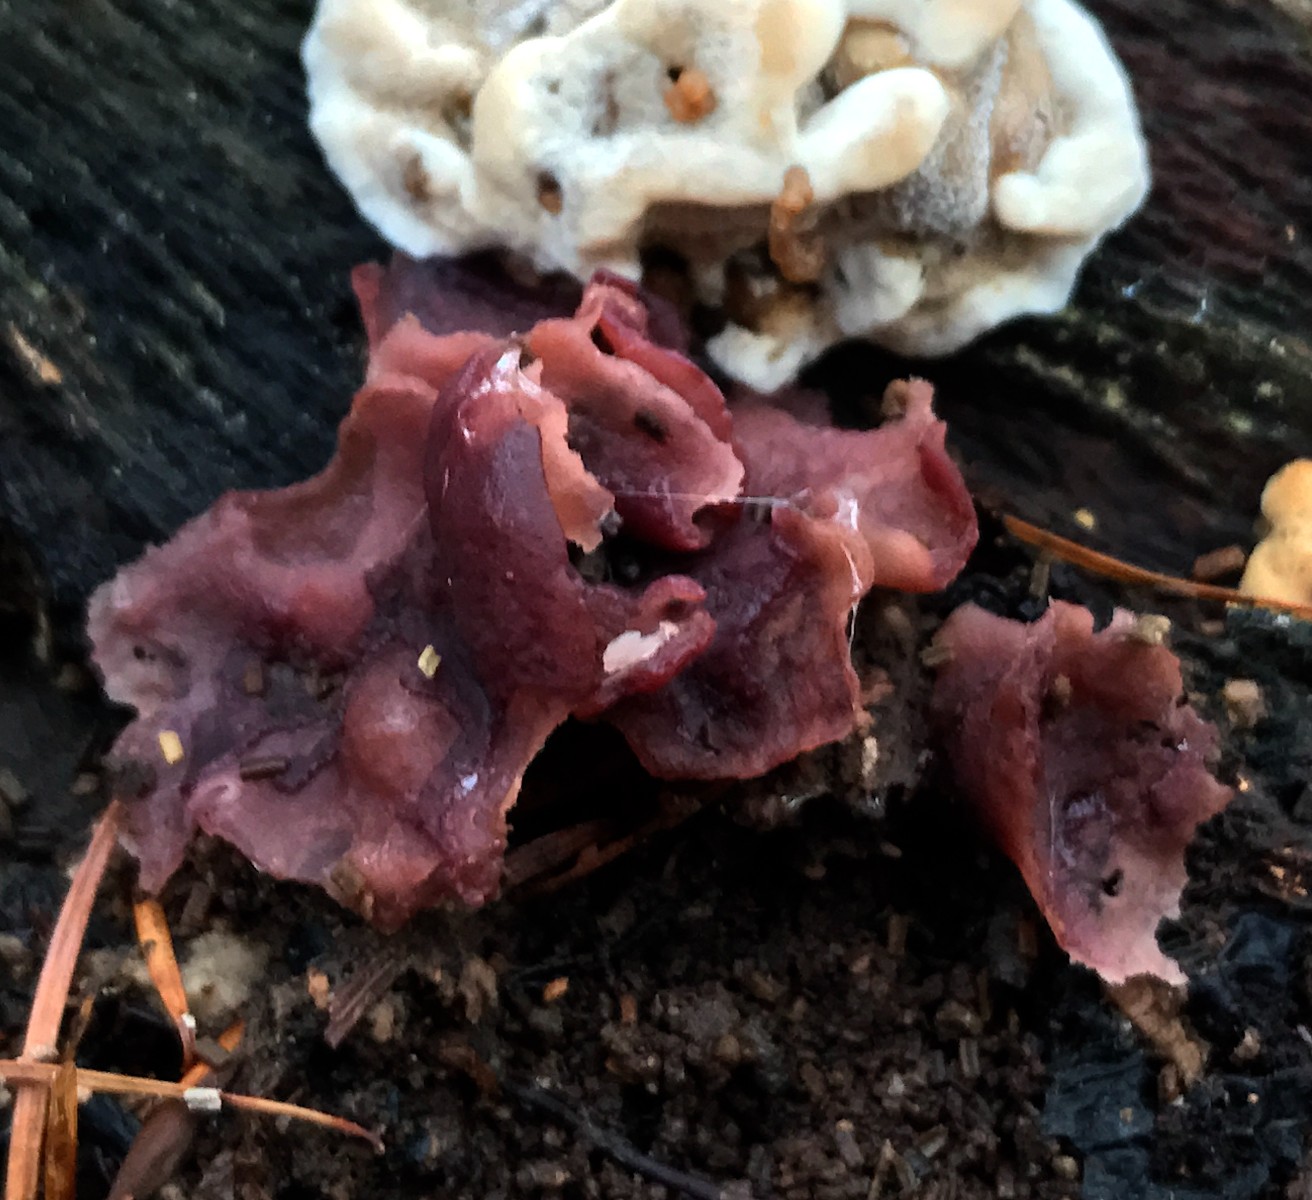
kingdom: Fungi
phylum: Ascomycota
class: Leotiomycetes
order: Helotiales
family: Gelatinodiscaceae
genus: Ascocoryne
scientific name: Ascocoryne cylichnium
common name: stor sejskive
